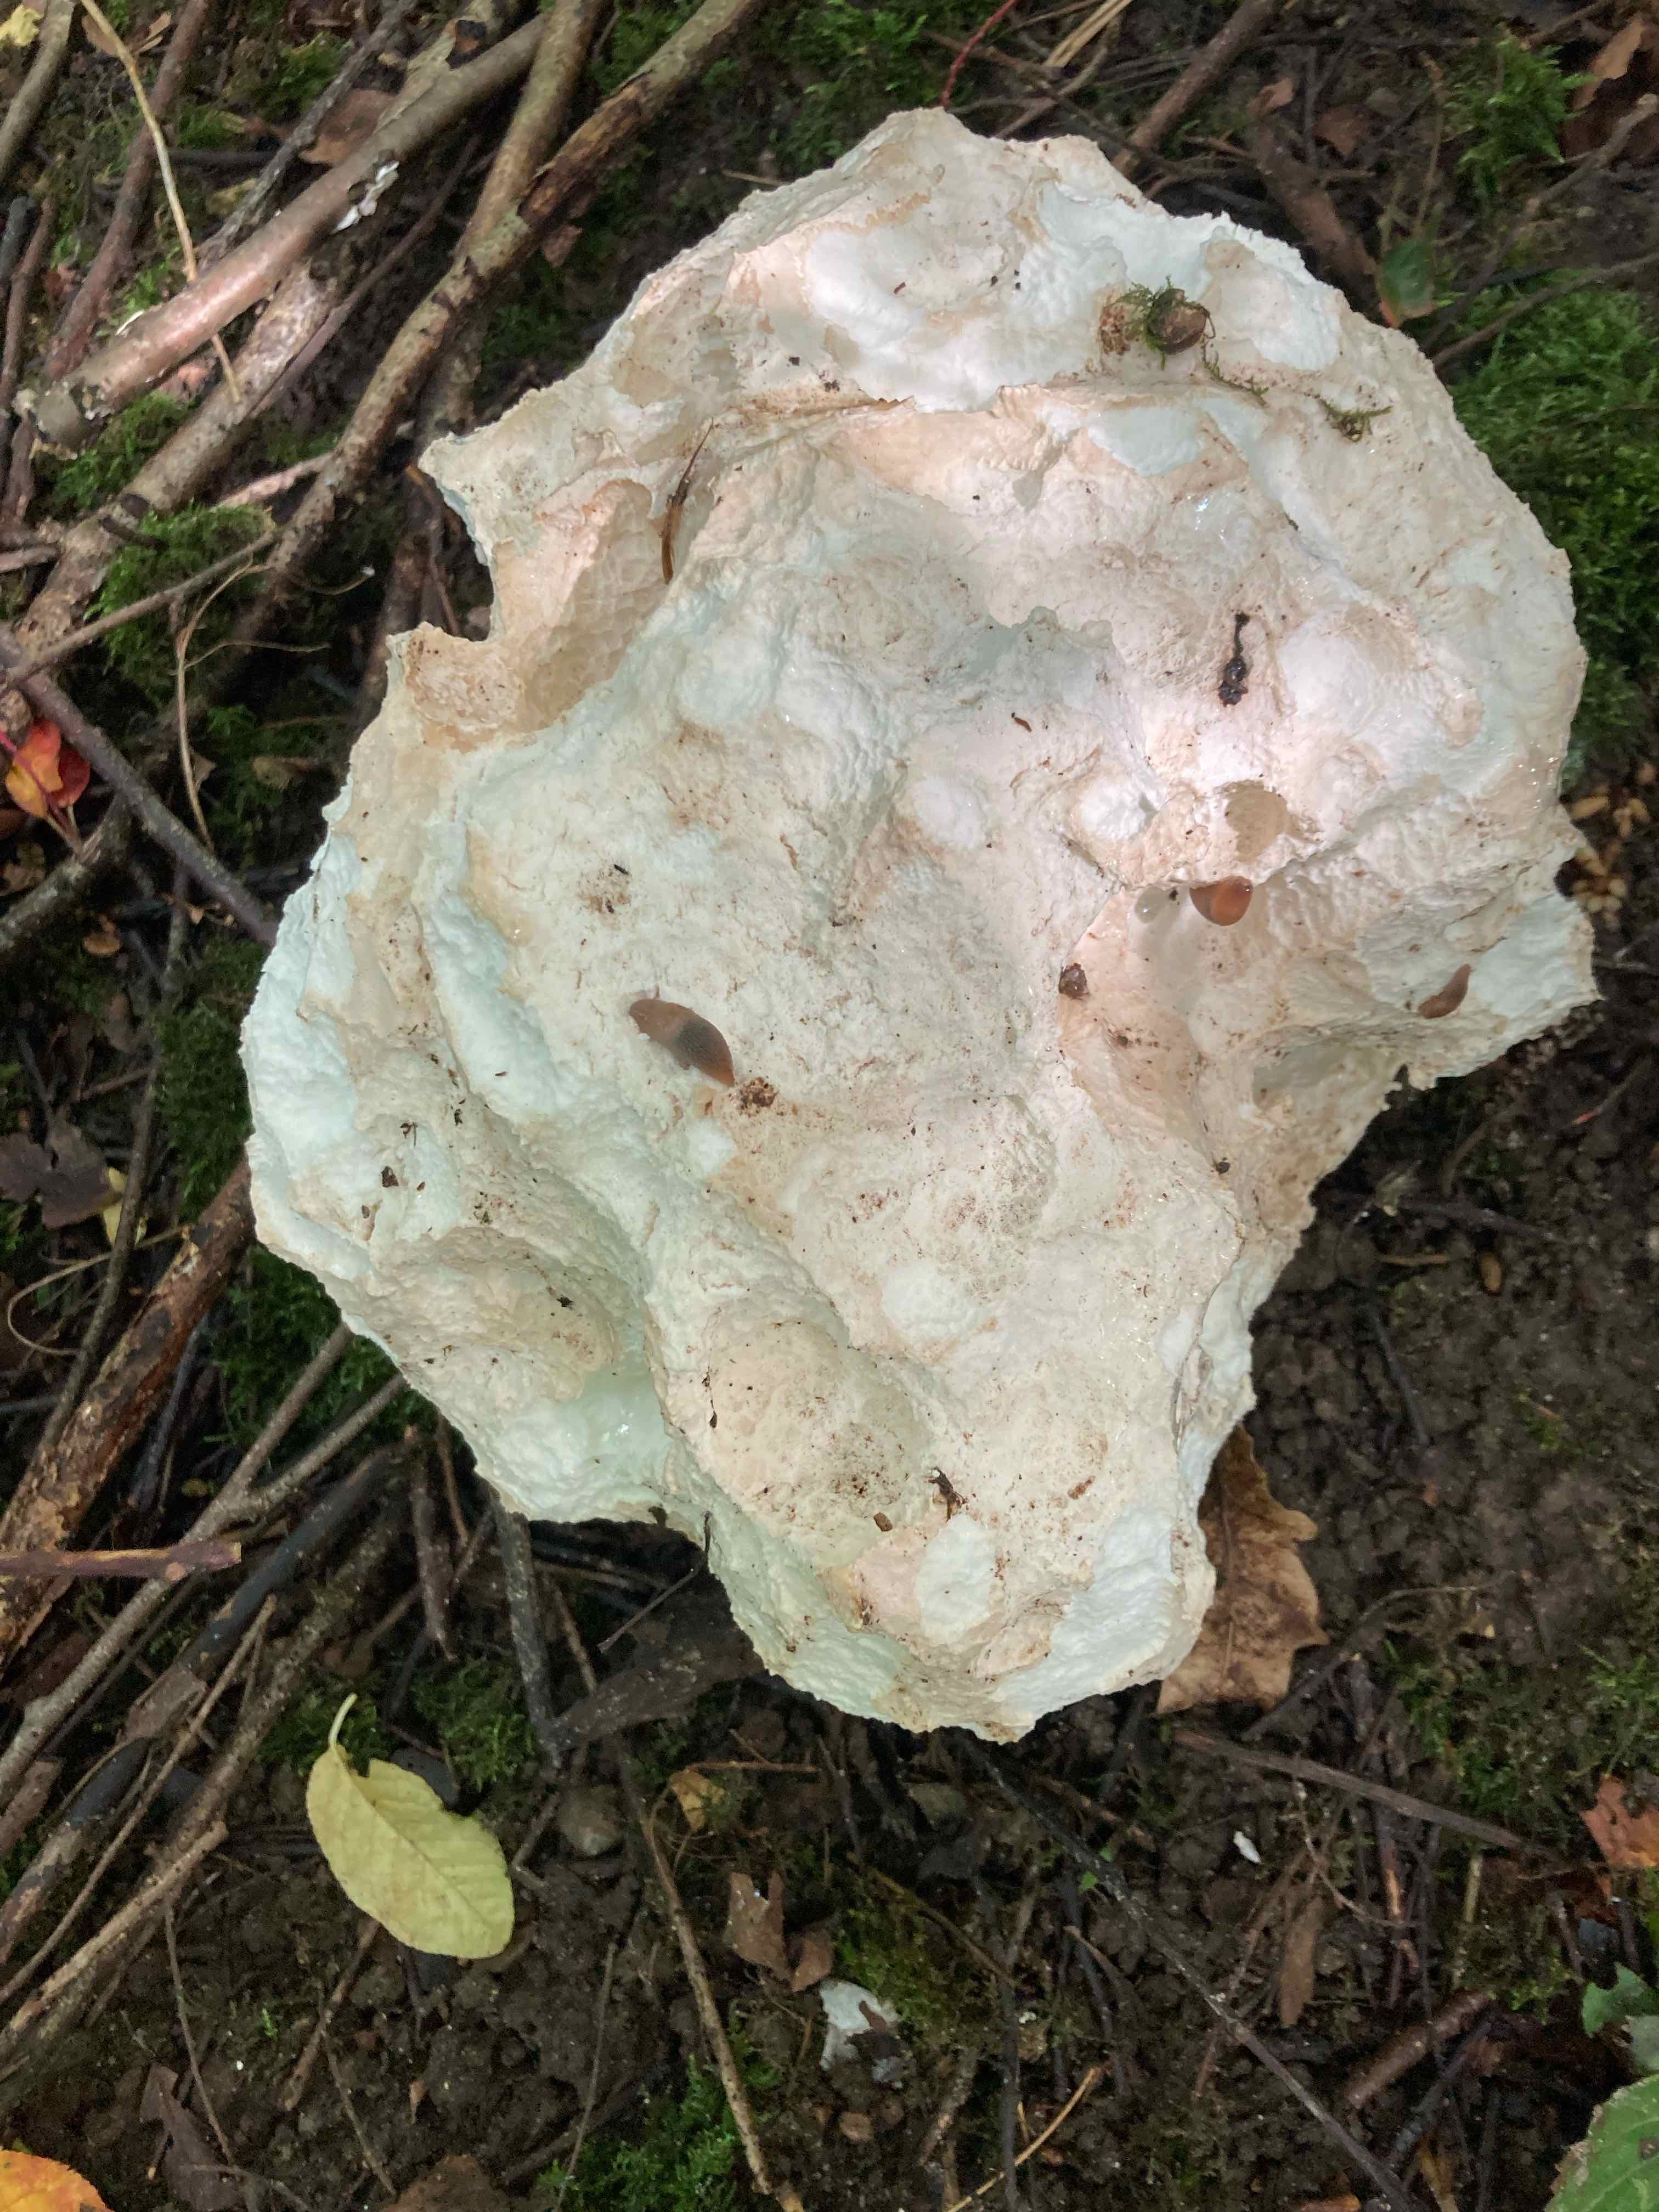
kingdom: Fungi
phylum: Basidiomycota
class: Agaricomycetes
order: Agaricales
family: Lycoperdaceae
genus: Calvatia
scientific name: Calvatia gigantea
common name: kæmpestøvbold
